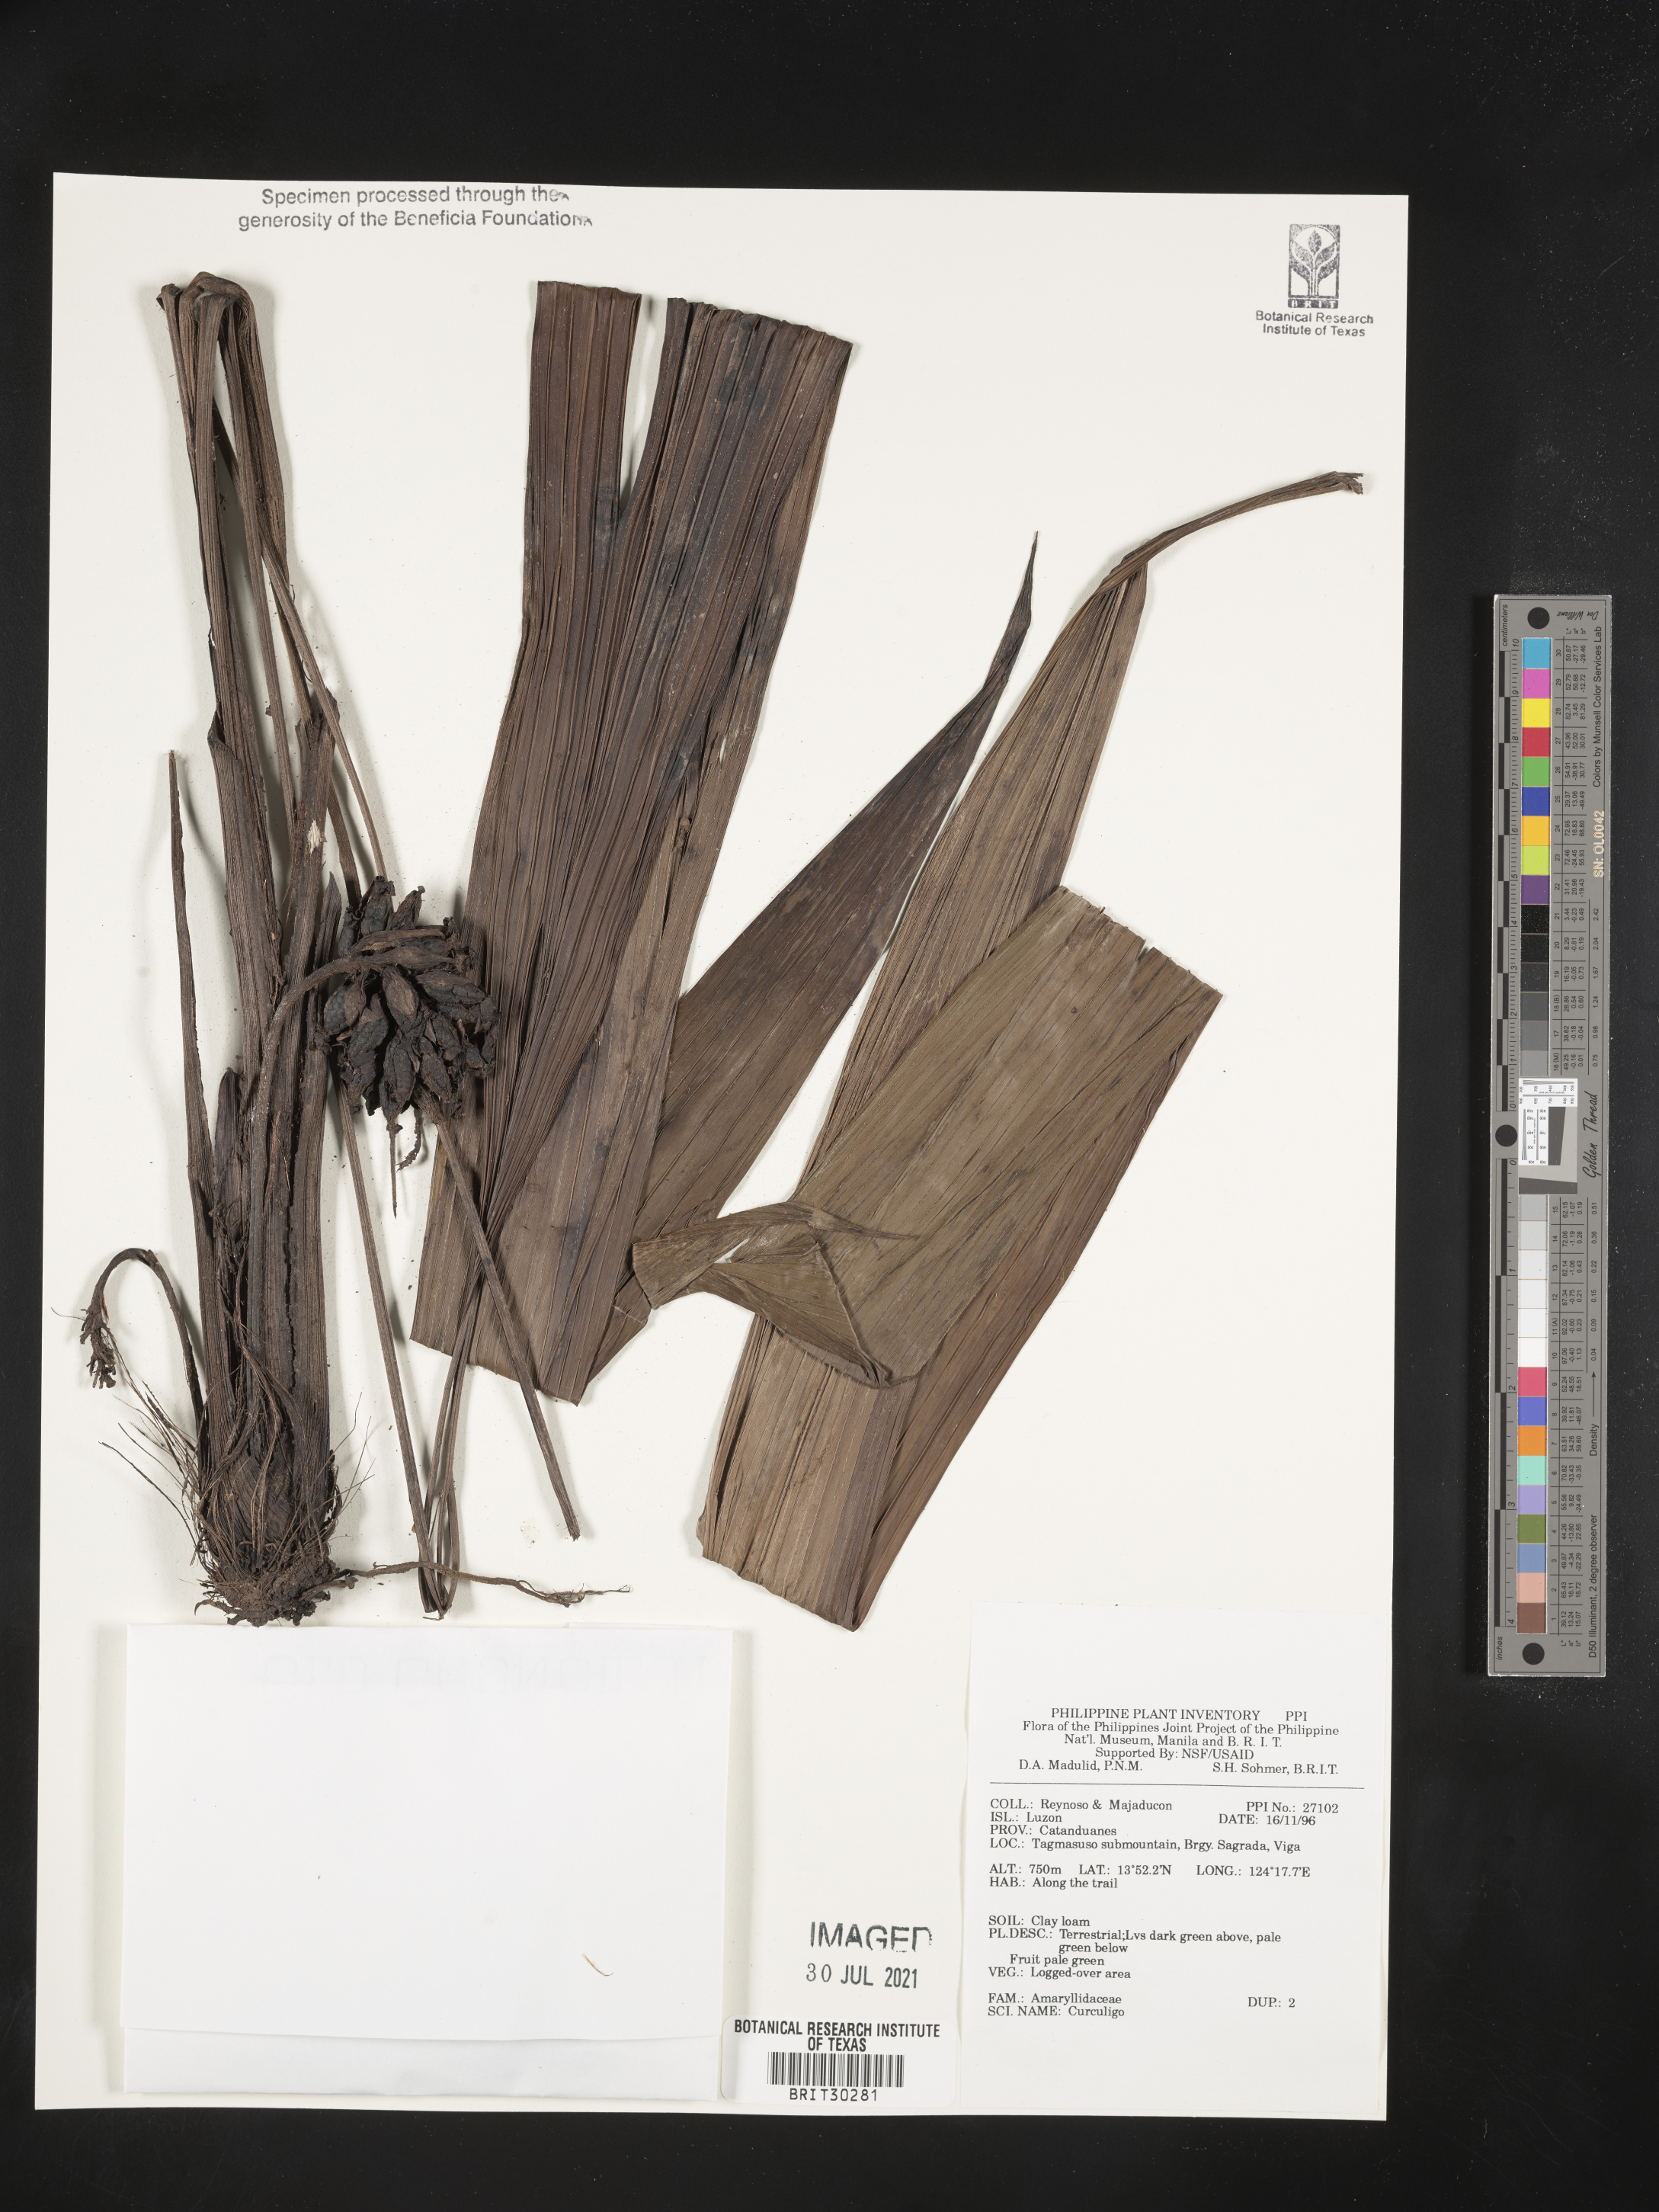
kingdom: Plantae
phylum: Tracheophyta
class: Liliopsida
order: Asparagales
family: Hypoxidaceae
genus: Curculigo
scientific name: Curculigo
